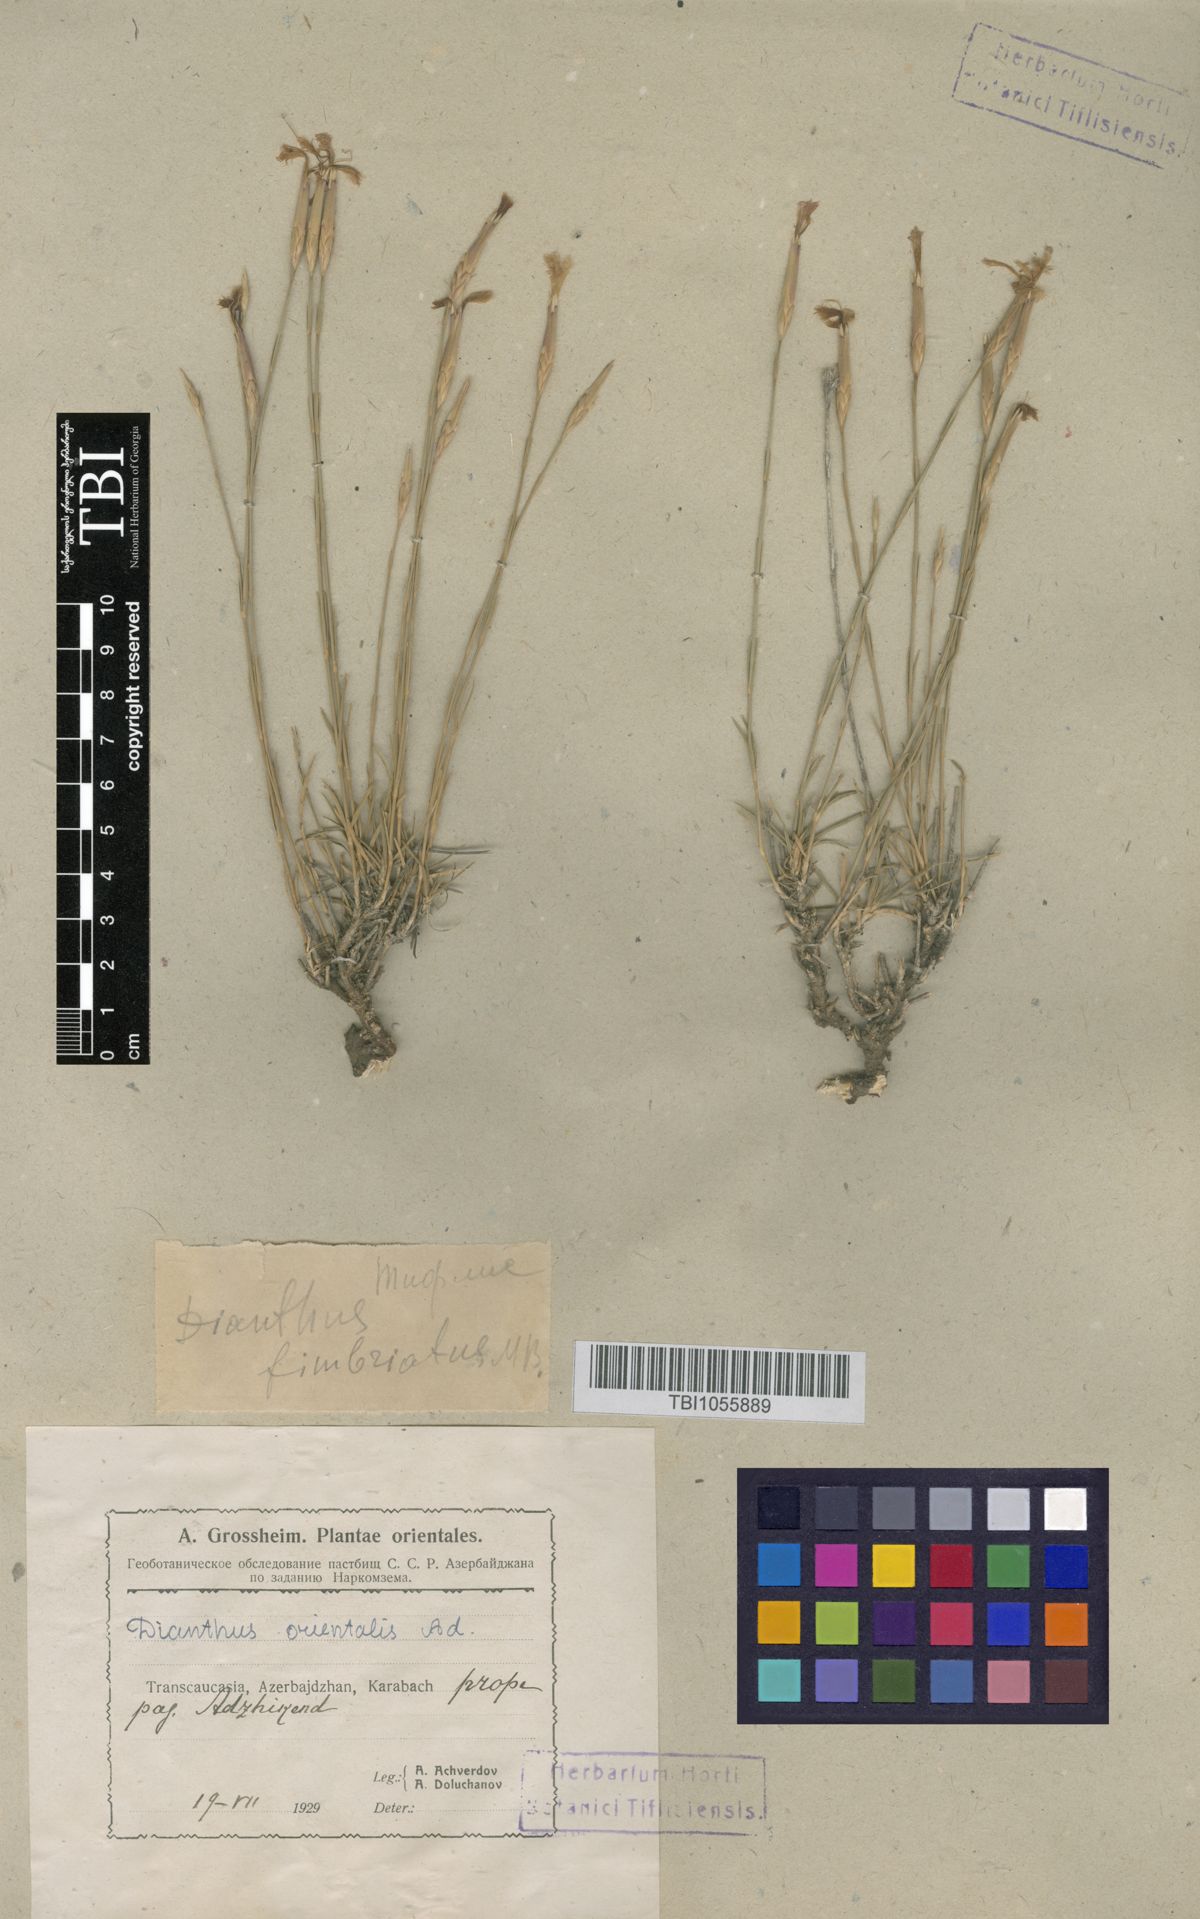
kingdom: Plantae
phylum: Tracheophyta
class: Magnoliopsida
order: Caryophyllales
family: Caryophyllaceae
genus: Dianthus
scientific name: Dianthus orientalis
